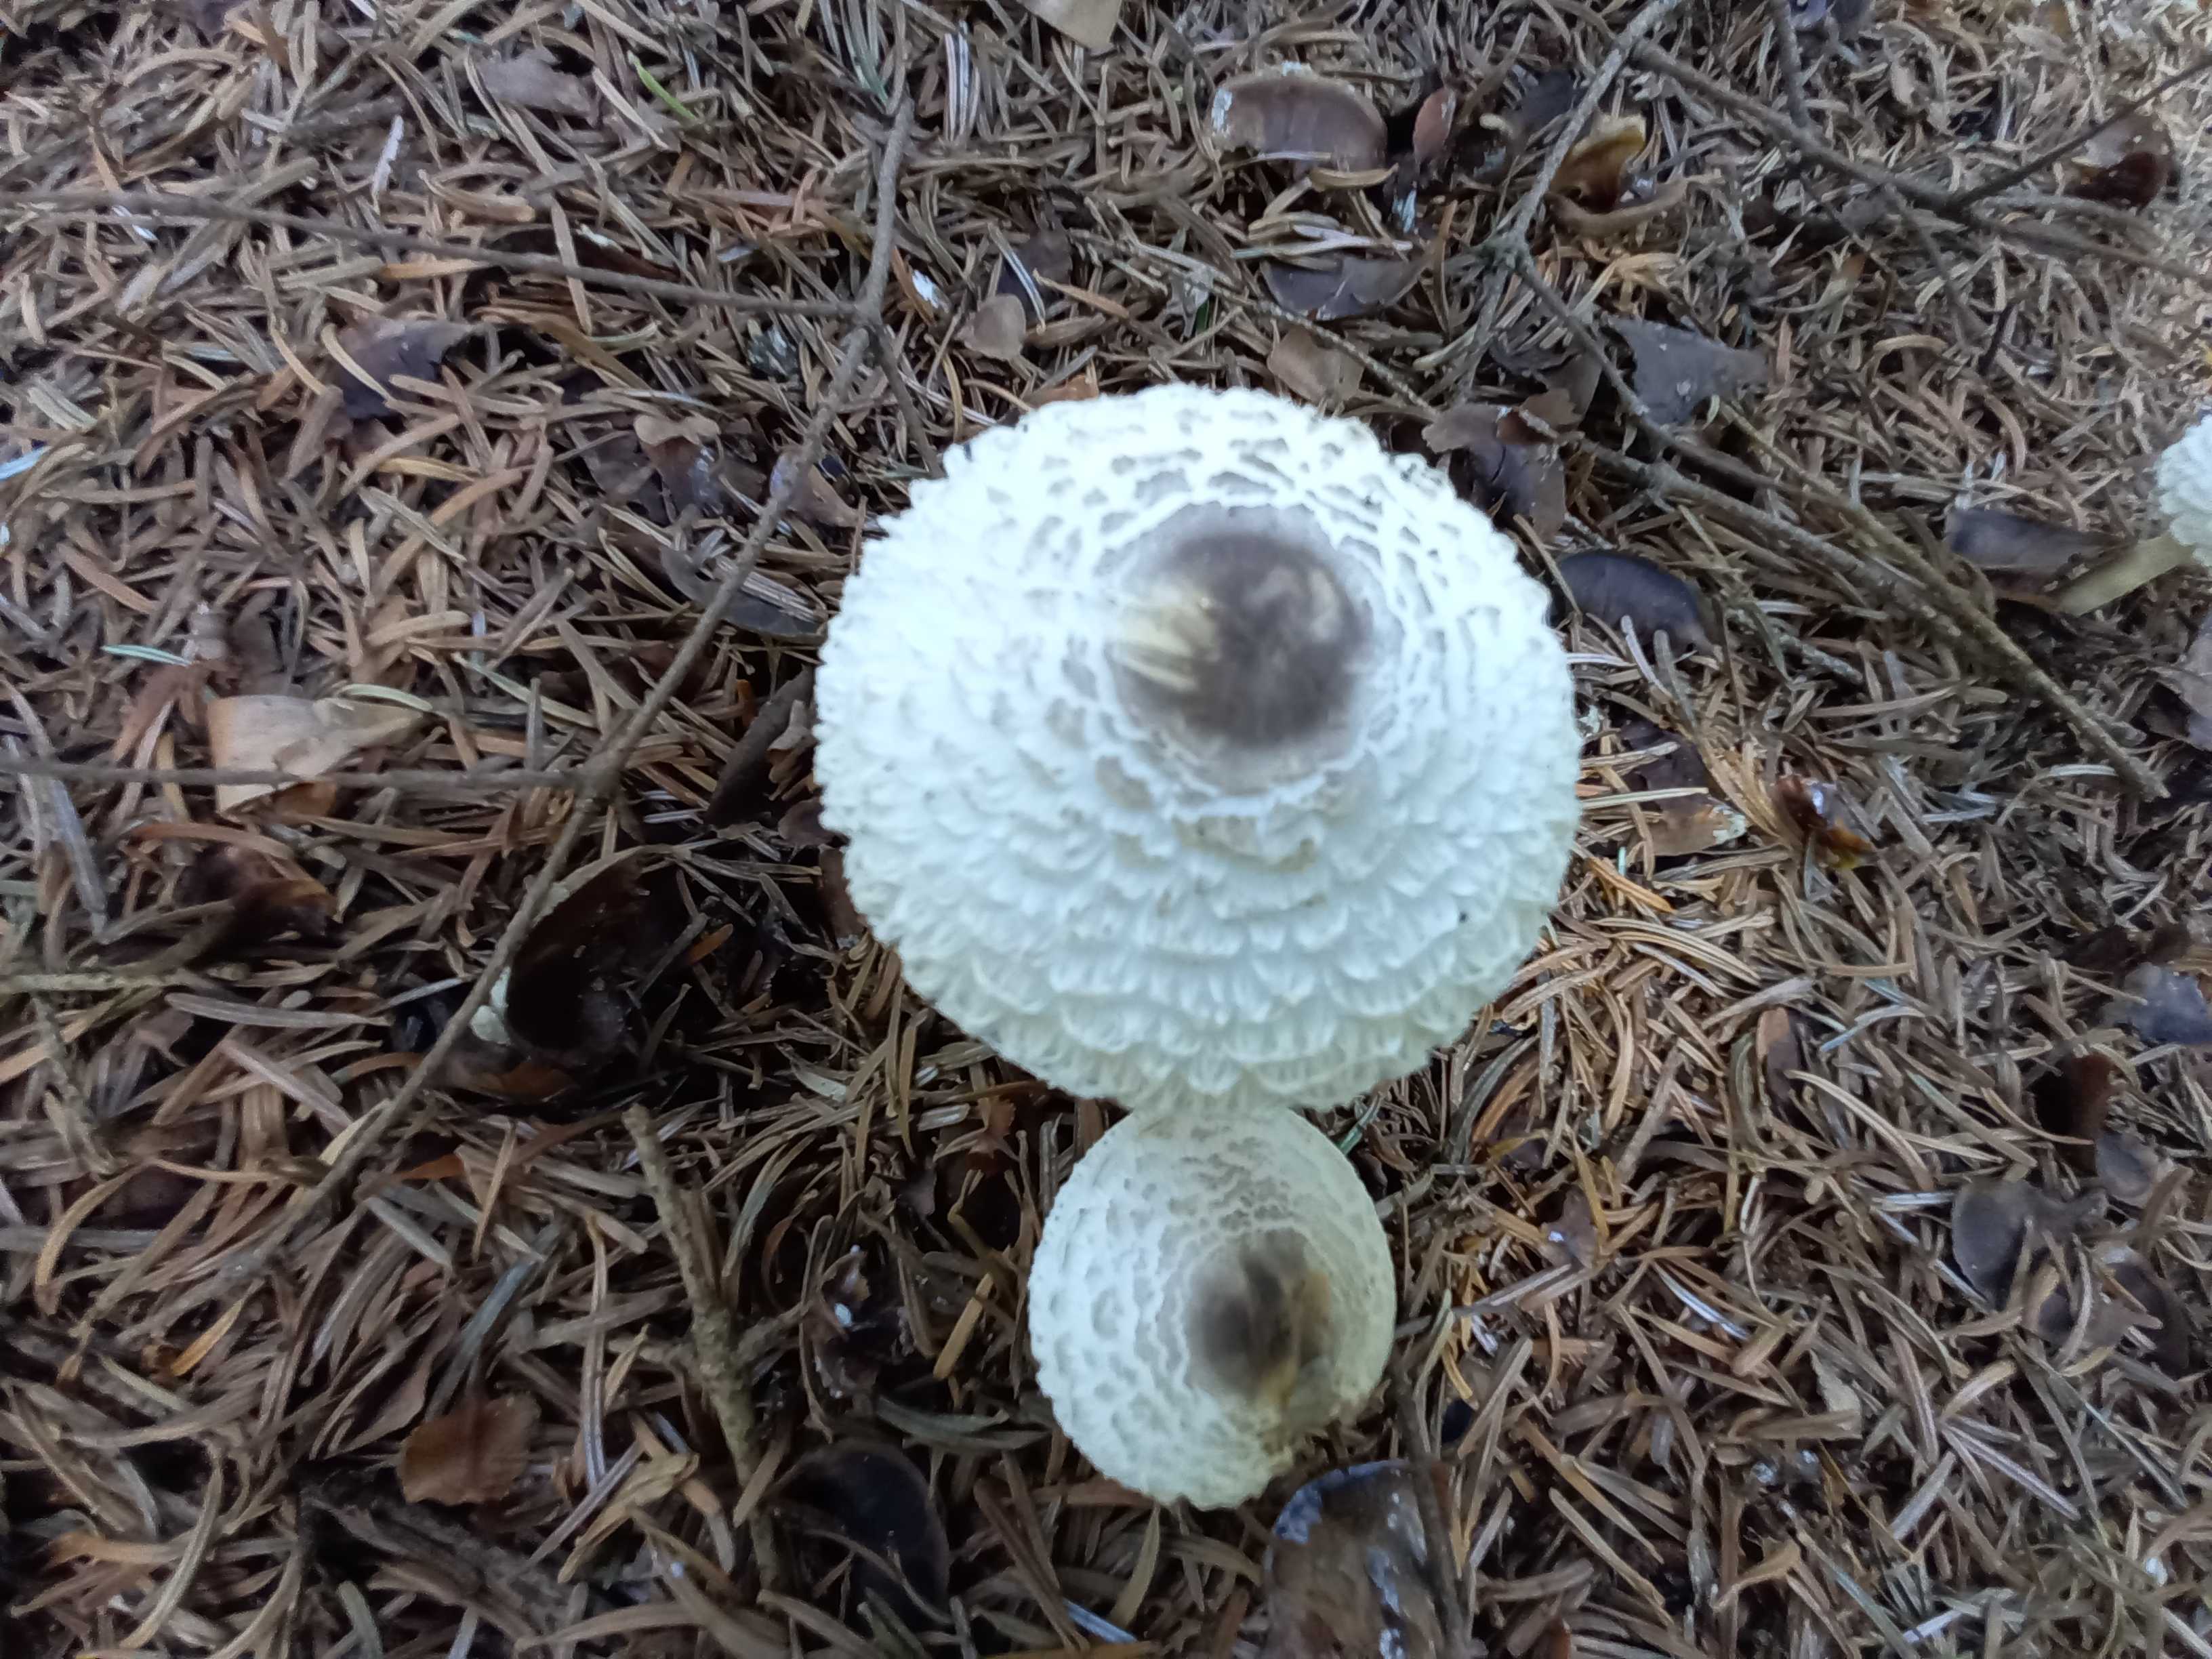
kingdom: Fungi
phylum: Basidiomycota
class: Agaricomycetes
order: Agaricales
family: Agaricaceae
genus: Leucoagaricus
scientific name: Leucoagaricus nympharum
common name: gran-silkehat
